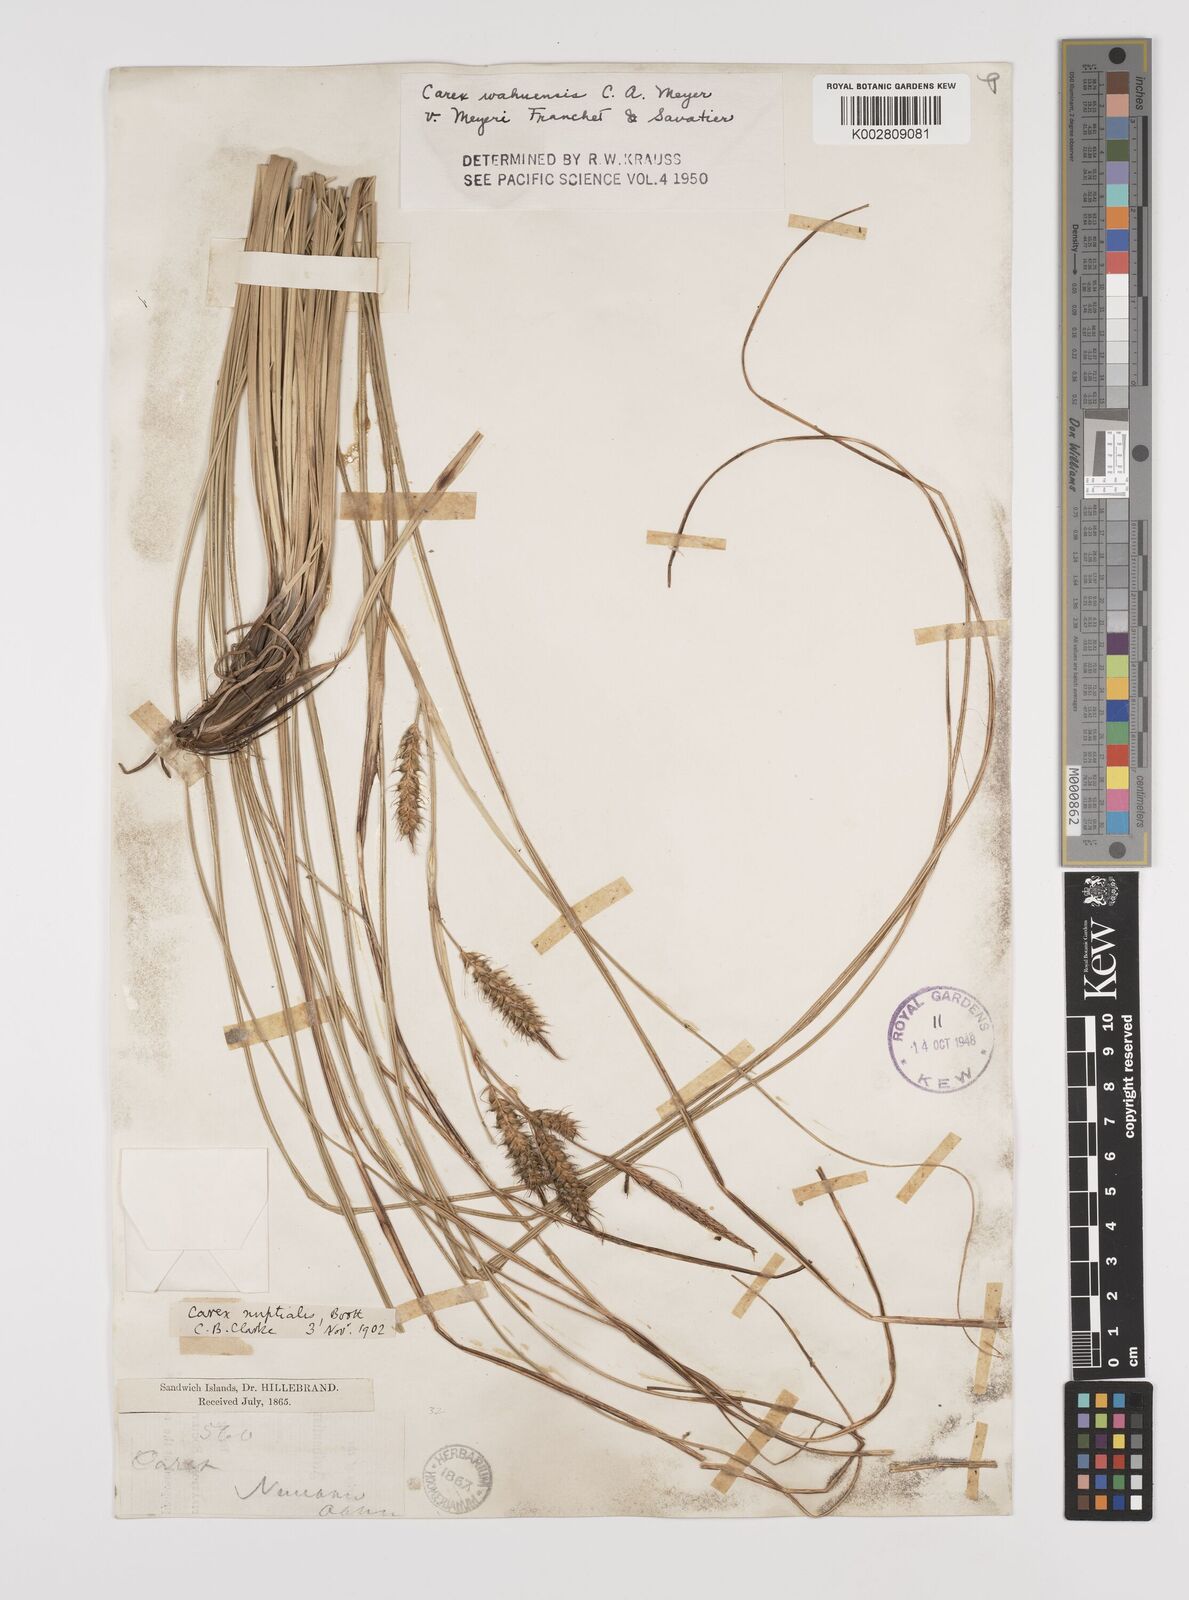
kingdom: Plantae
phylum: Tracheophyta
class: Liliopsida
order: Poales
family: Cyperaceae
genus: Carex
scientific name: Carex wahuensis
